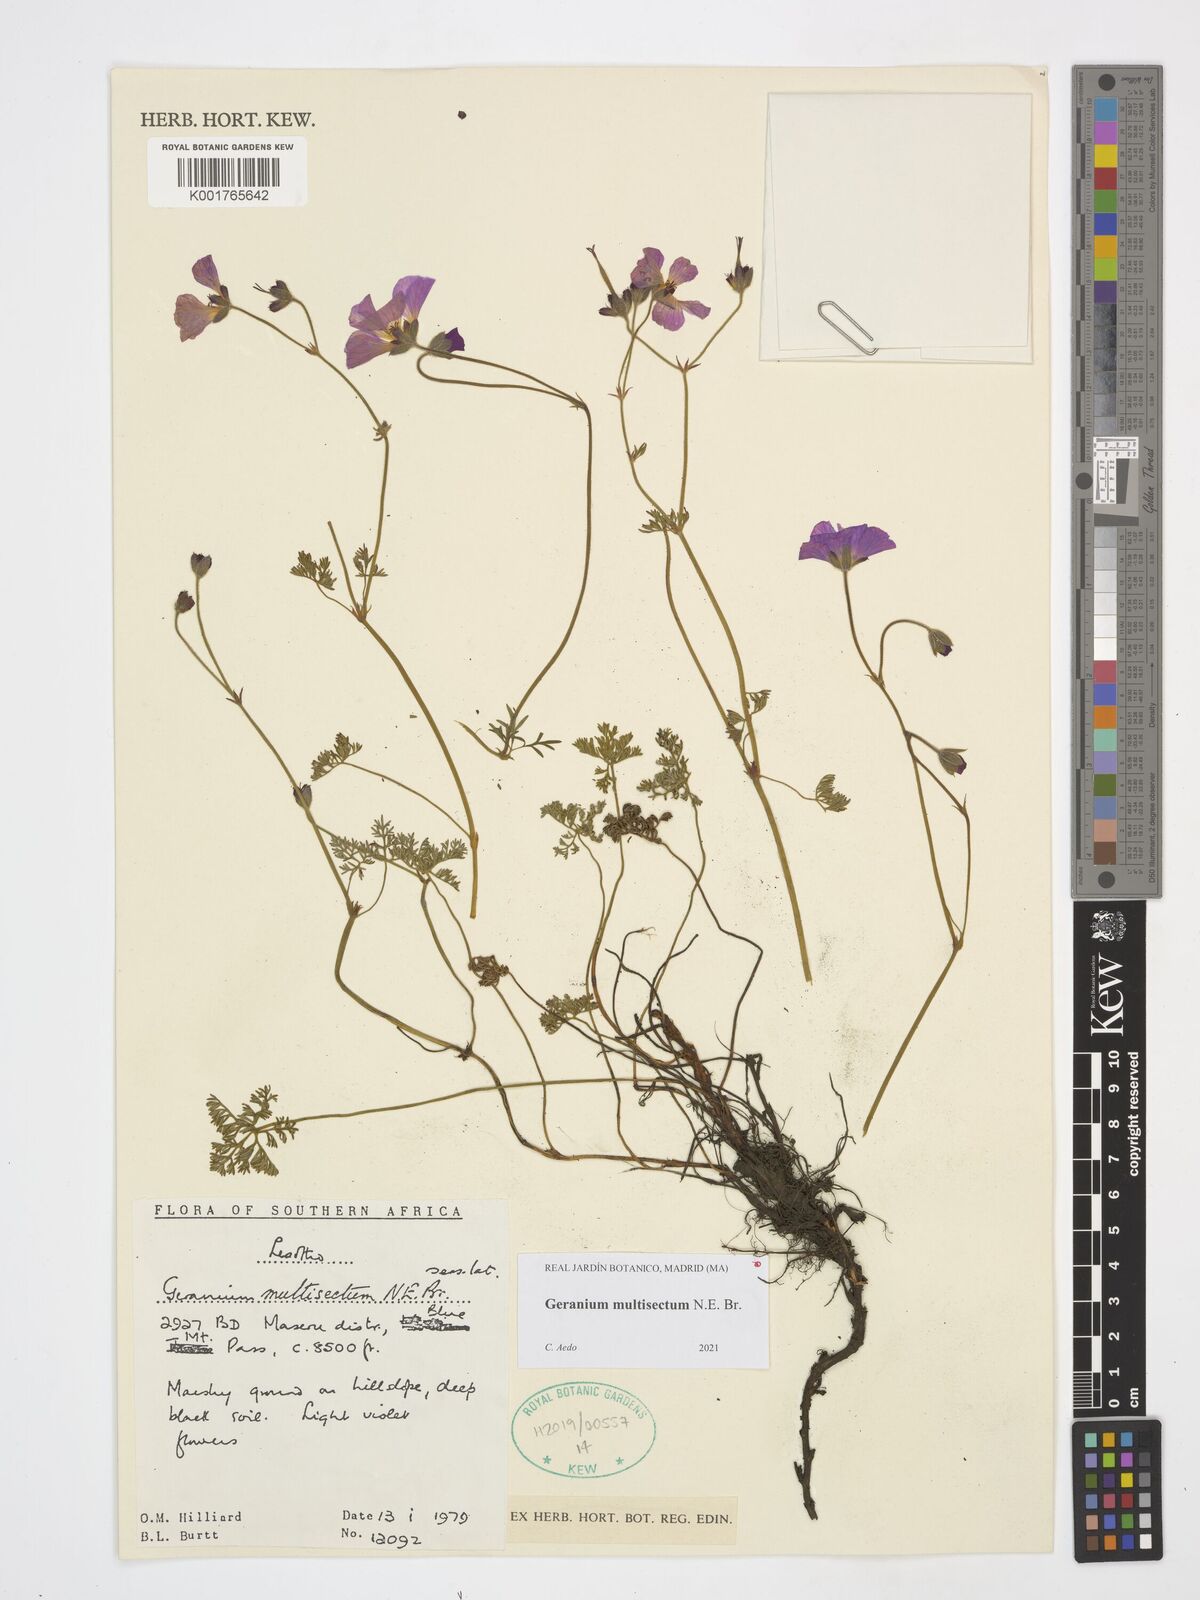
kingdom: Plantae
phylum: Tracheophyta
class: Magnoliopsida
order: Geraniales
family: Geraniaceae
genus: Geranium
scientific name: Geranium multisectum
